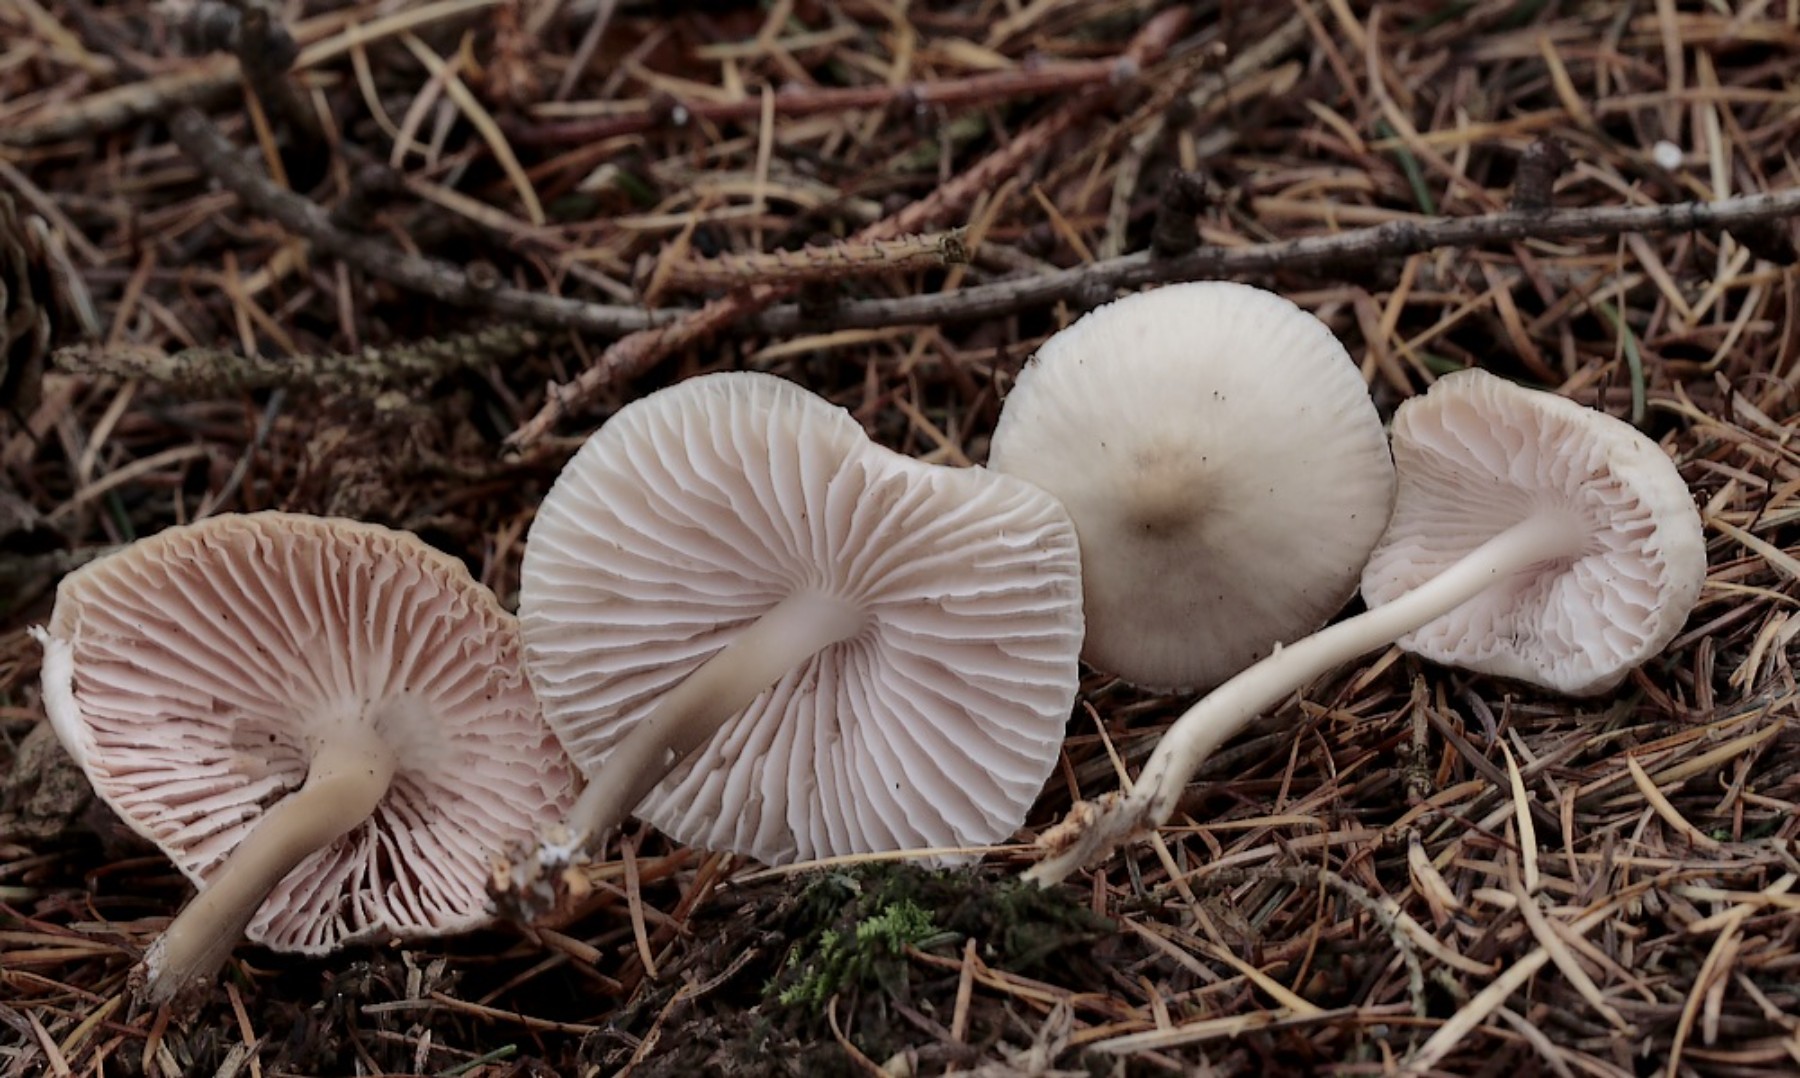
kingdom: Fungi
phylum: Basidiomycota
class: Agaricomycetes
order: Agaricales
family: Mycenaceae
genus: Mycena
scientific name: Mycena galericulata
